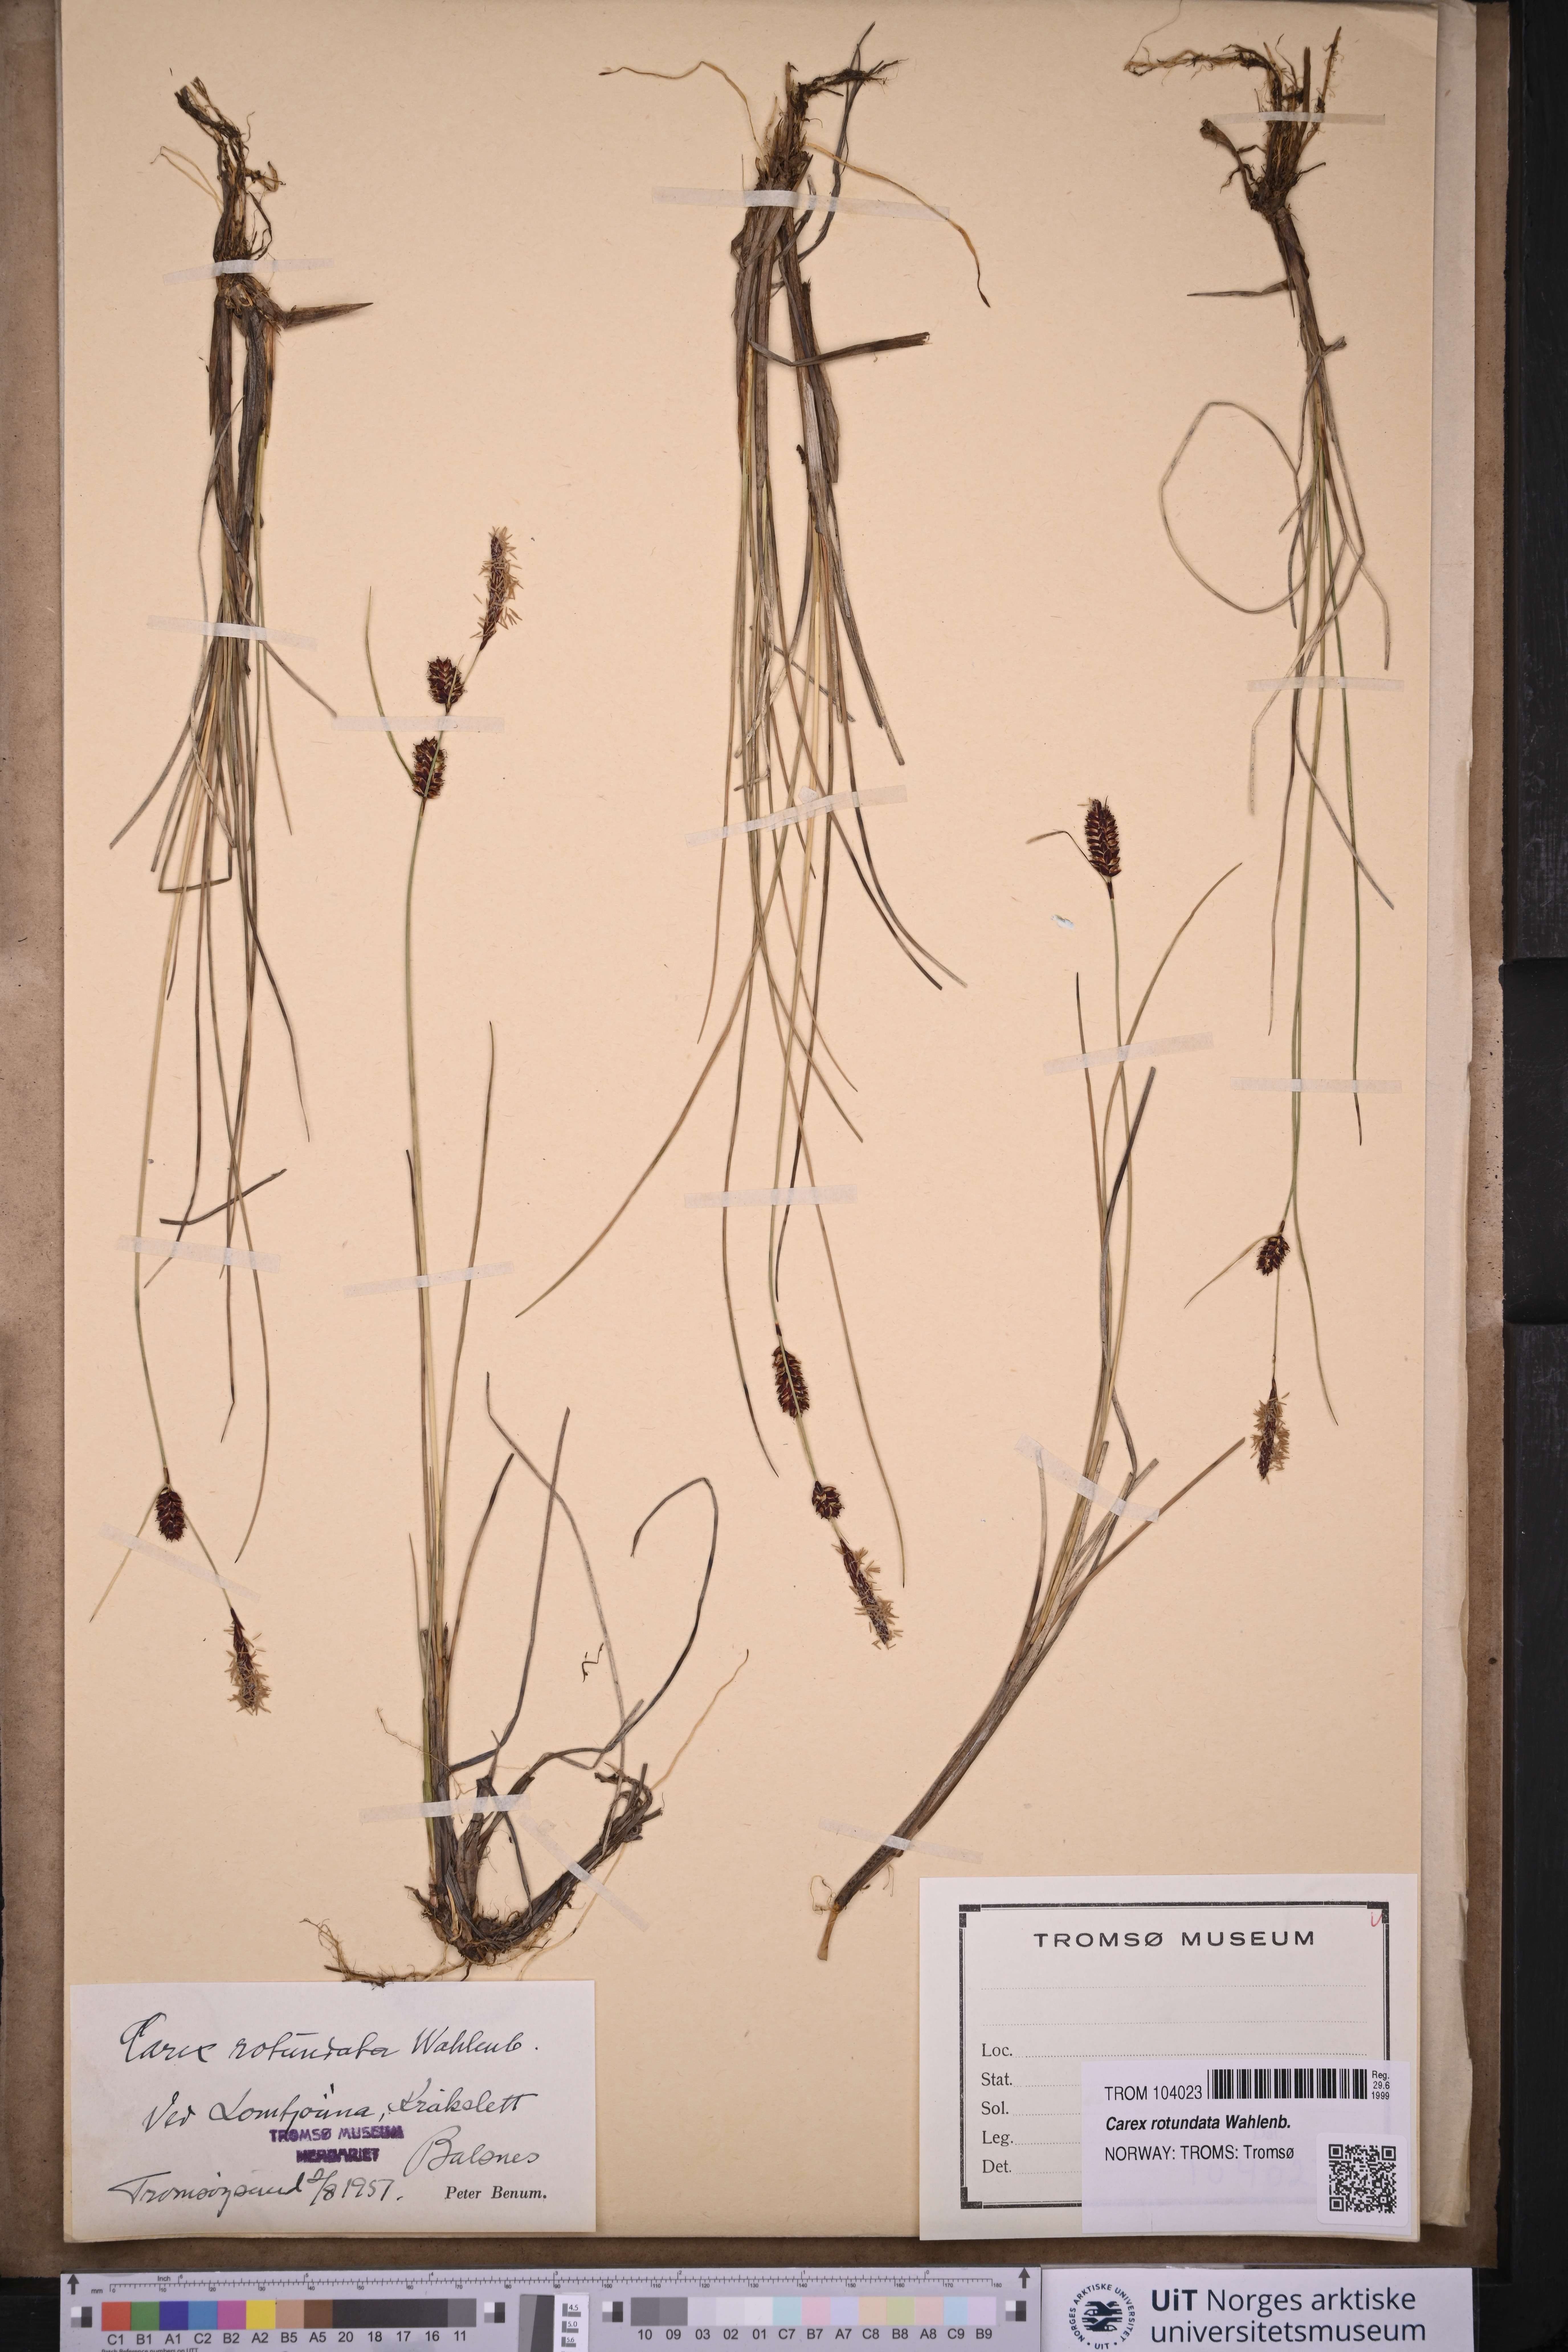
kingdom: Plantae
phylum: Tracheophyta
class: Liliopsida
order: Poales
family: Cyperaceae
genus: Carex
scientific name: Carex rotundata
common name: Round-fruited sedge
